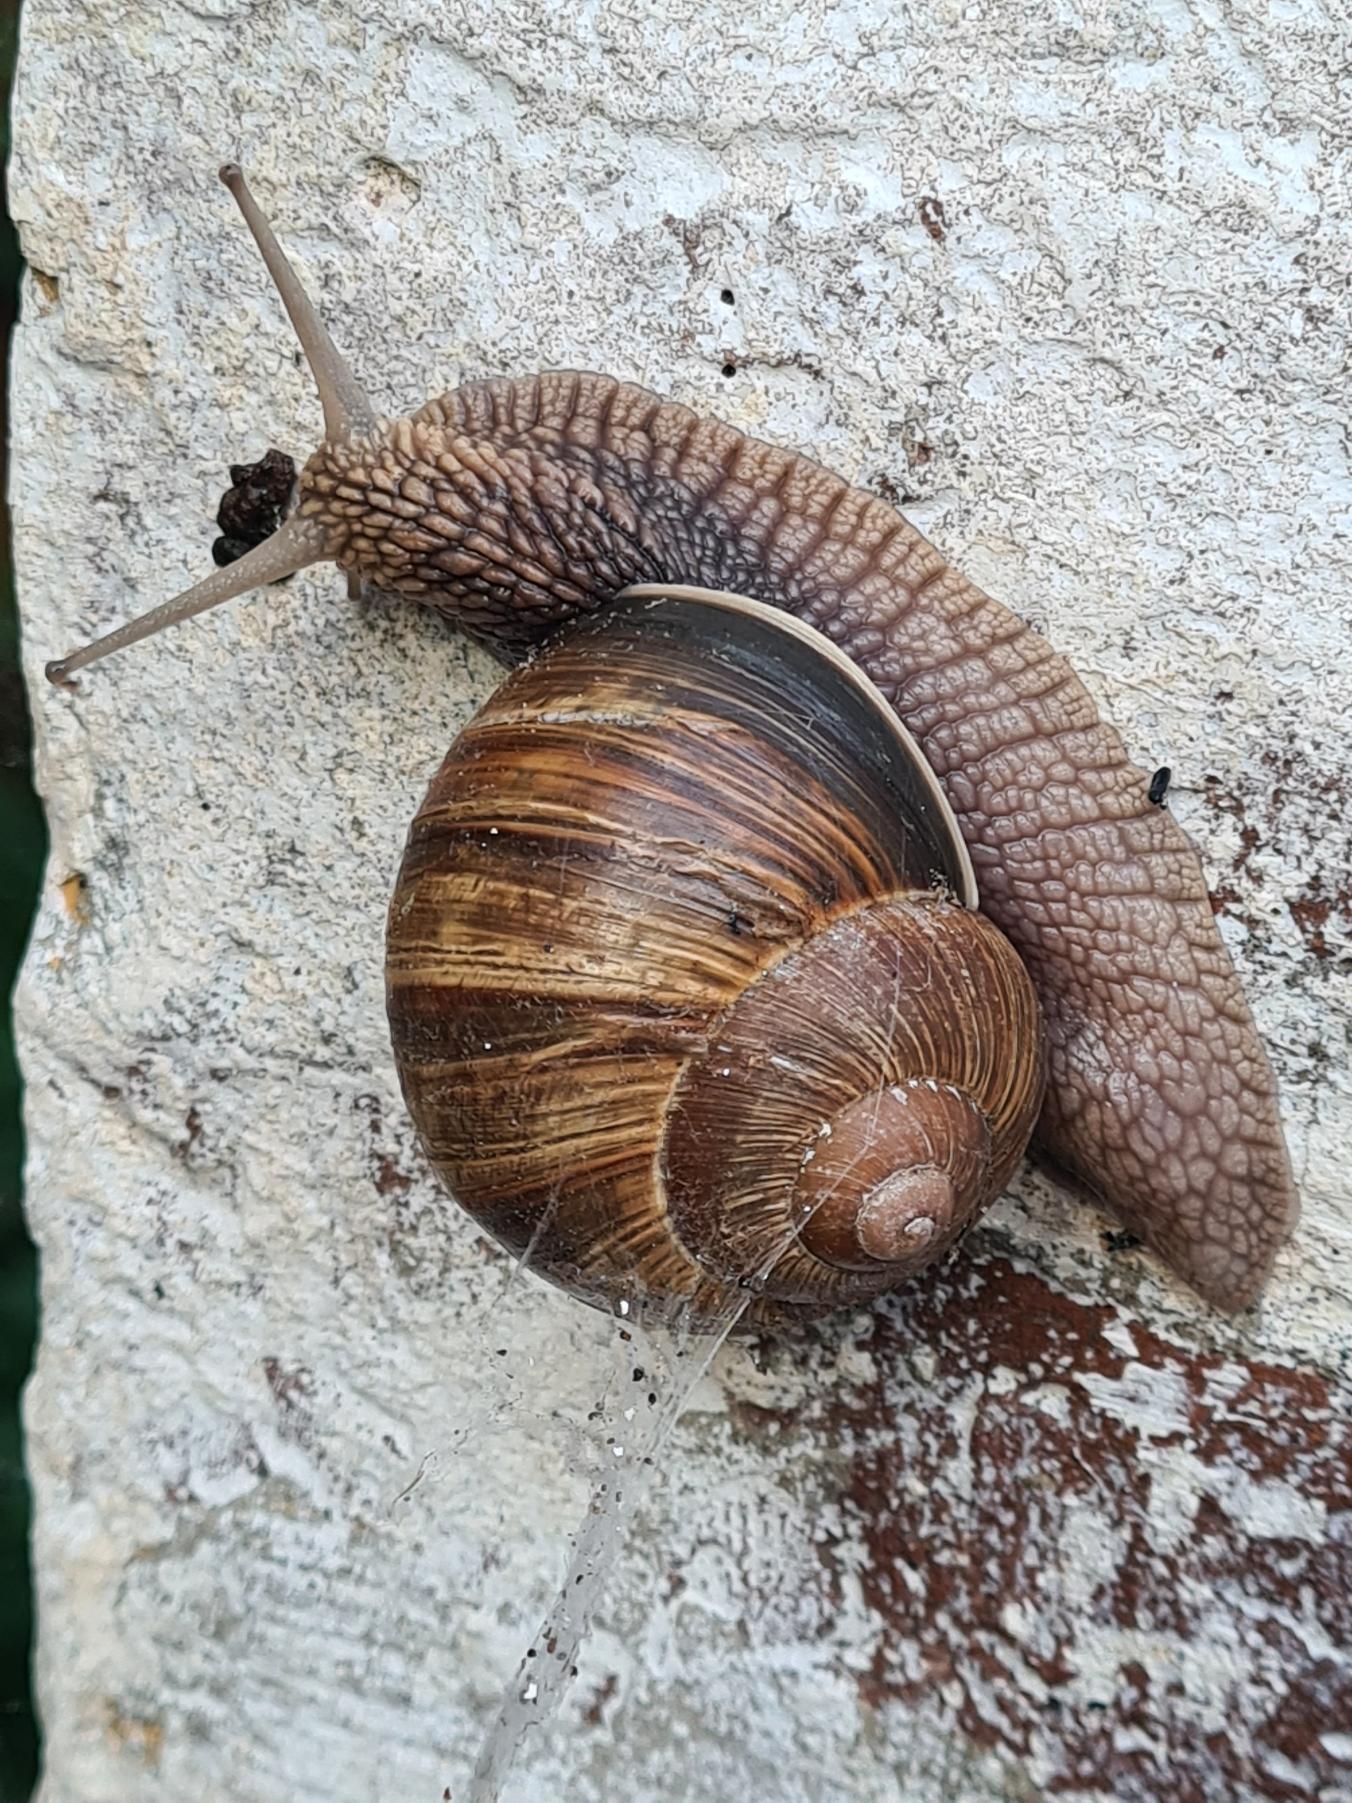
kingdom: Animalia
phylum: Mollusca
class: Gastropoda
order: Stylommatophora
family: Helicidae
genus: Helix
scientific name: Helix pomatia
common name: Vinbjergsnegl
